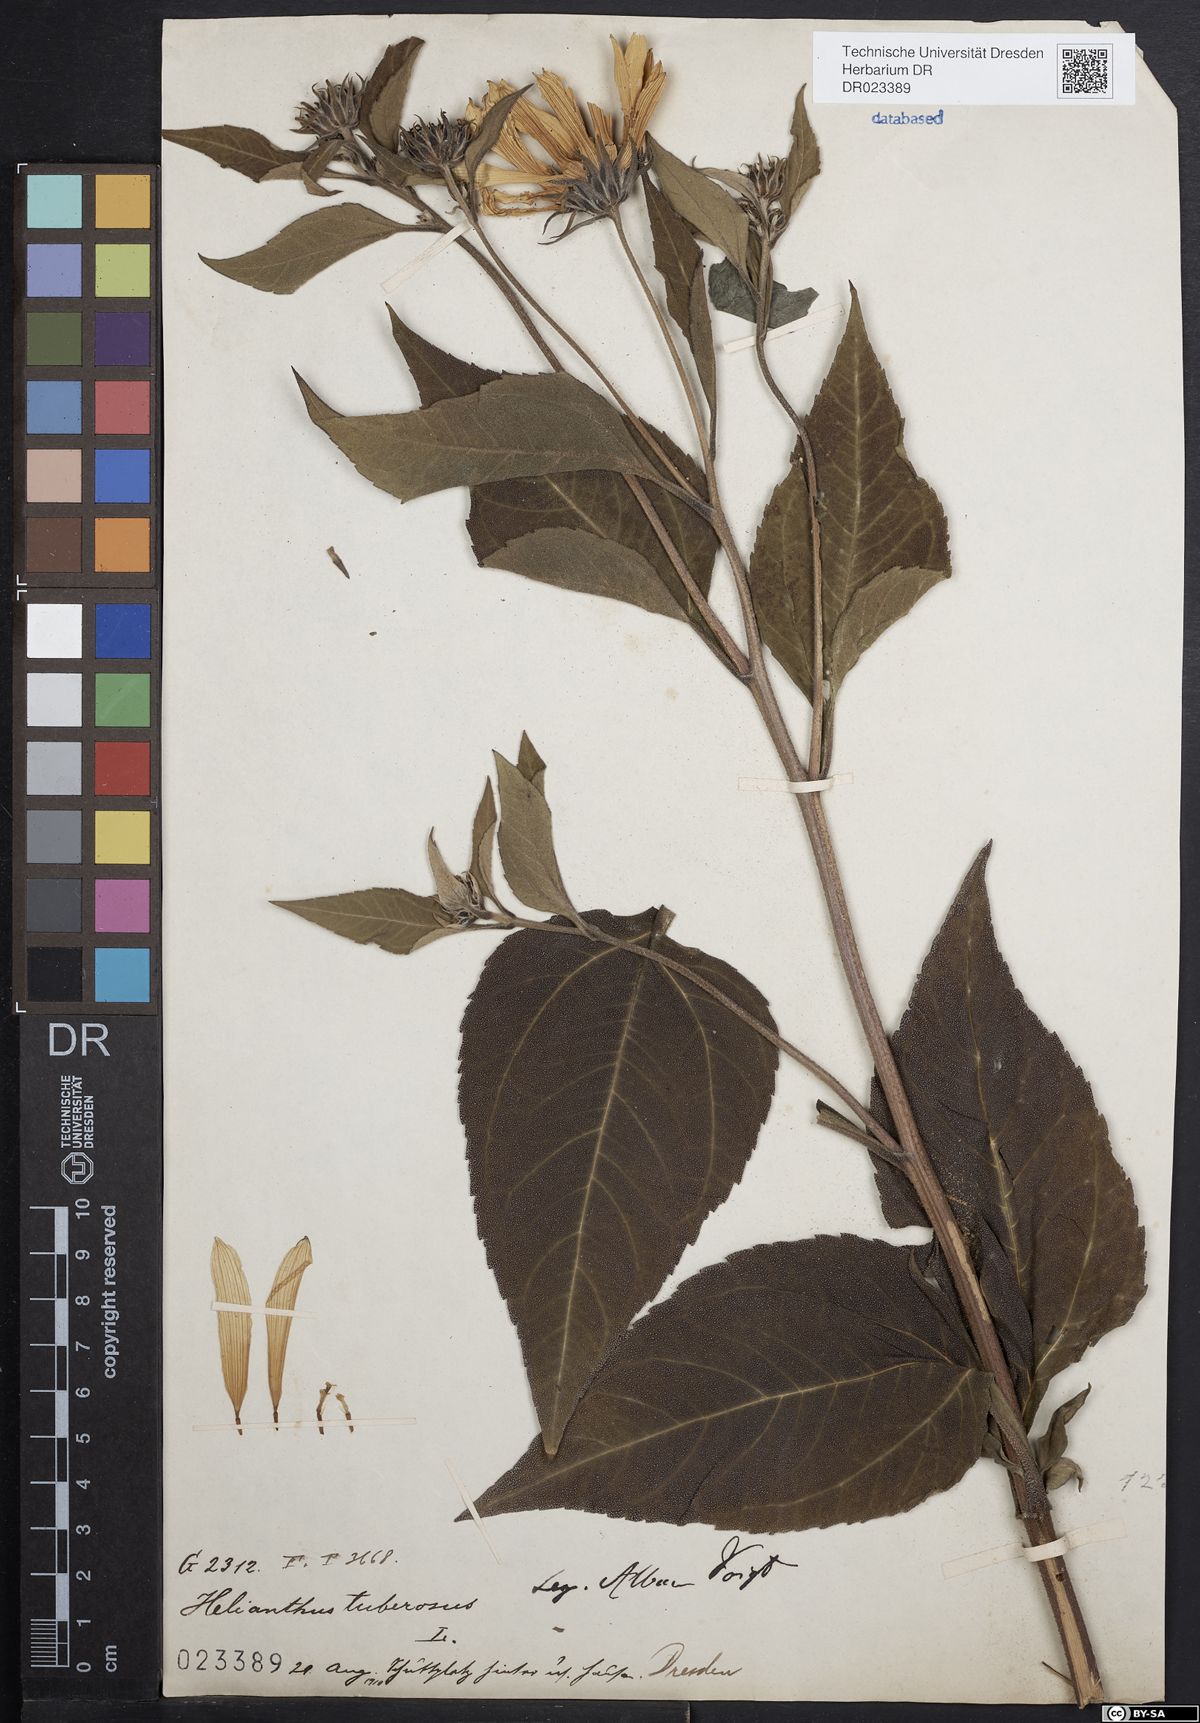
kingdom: Plantae
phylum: Tracheophyta
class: Magnoliopsida
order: Asterales
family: Asteraceae
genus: Helianthus
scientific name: Helianthus tuberosus
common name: Jerusalem artichoke
